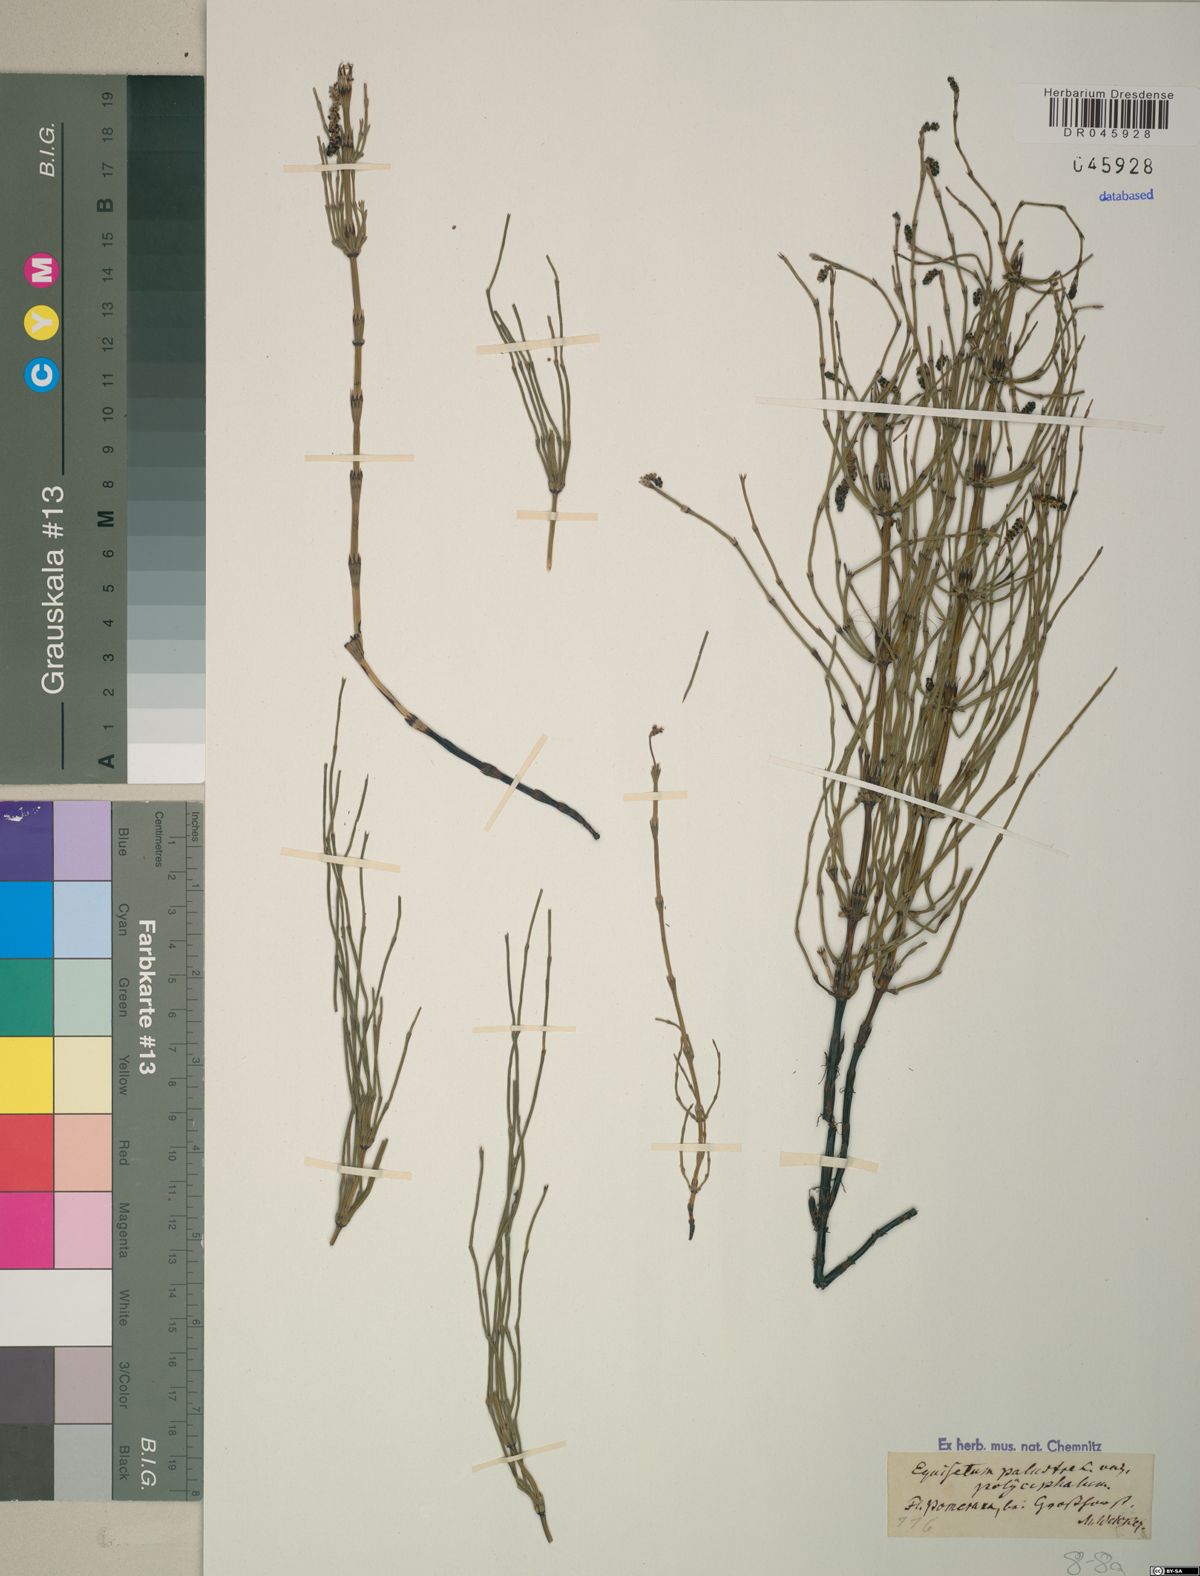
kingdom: Plantae
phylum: Tracheophyta
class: Polypodiopsida
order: Equisetales
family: Equisetaceae
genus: Equisetum
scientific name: Equisetum palustre
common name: Marsh horsetail
